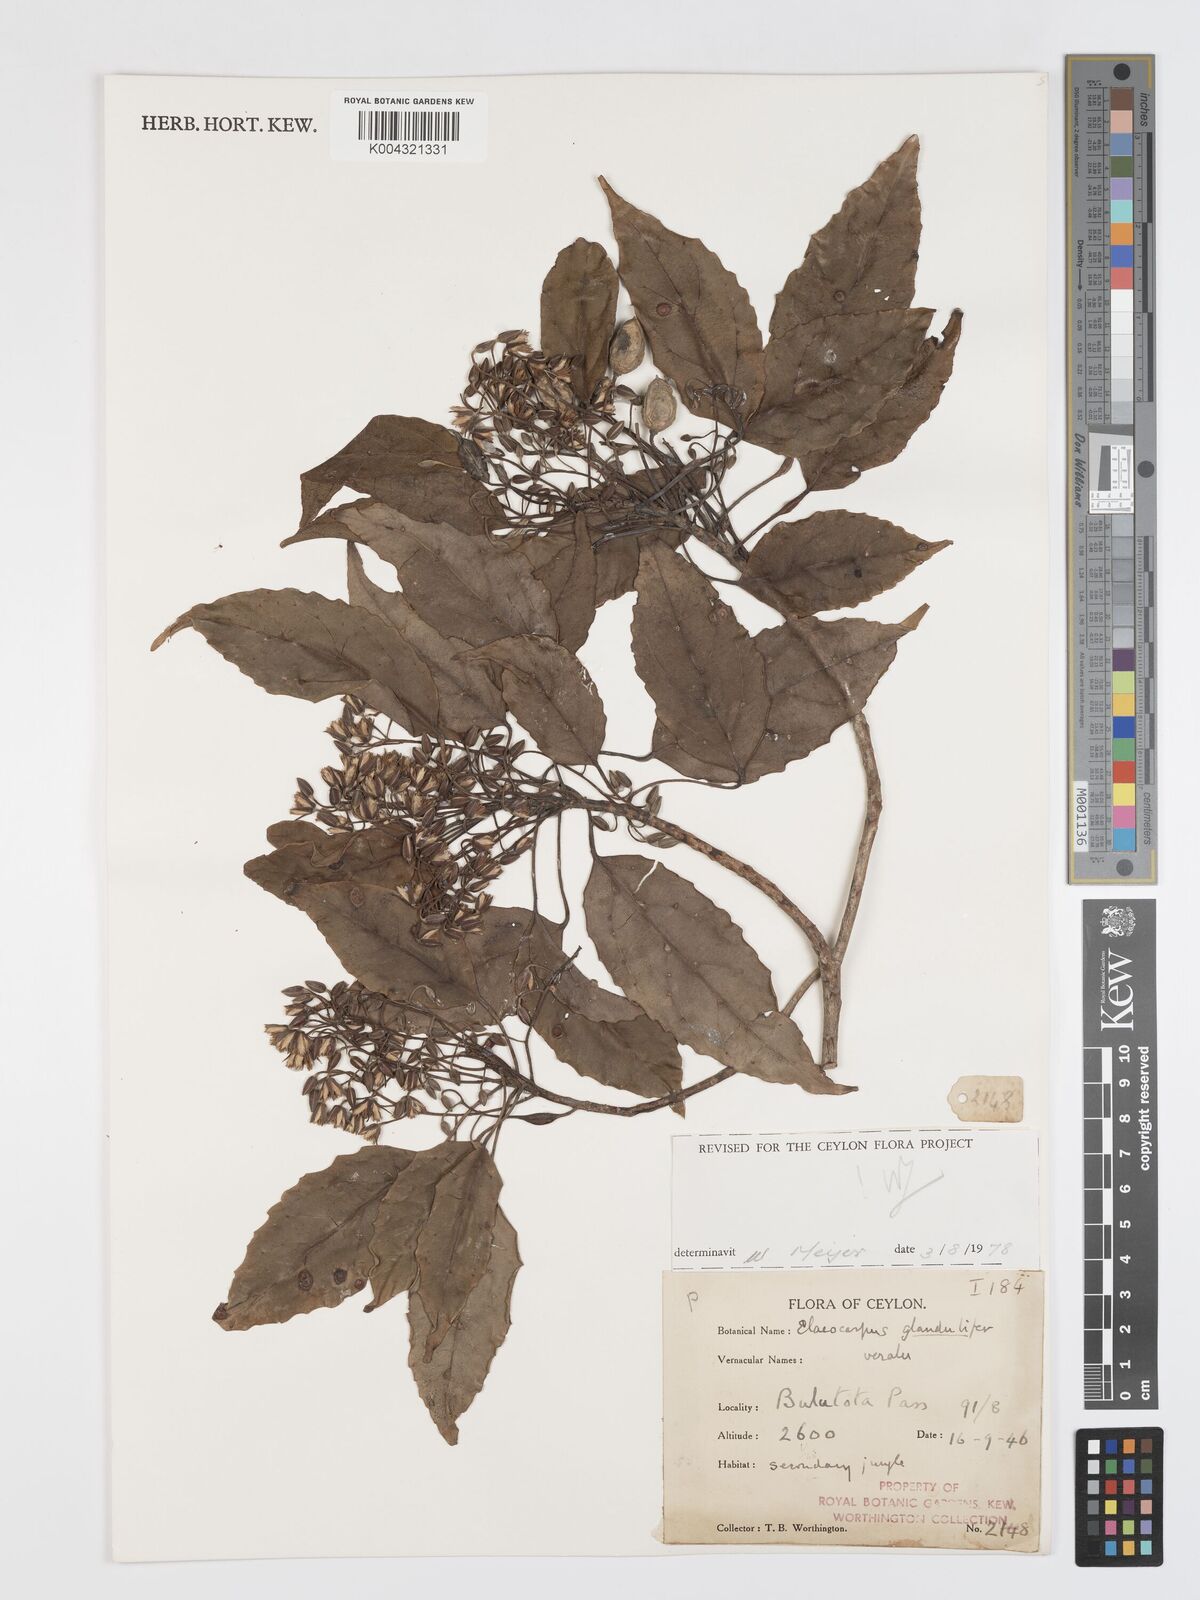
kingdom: Plantae
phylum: Tracheophyta
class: Magnoliopsida
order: Oxalidales
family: Elaeocarpaceae
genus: Elaeocarpus
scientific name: Elaeocarpus glandulifer
